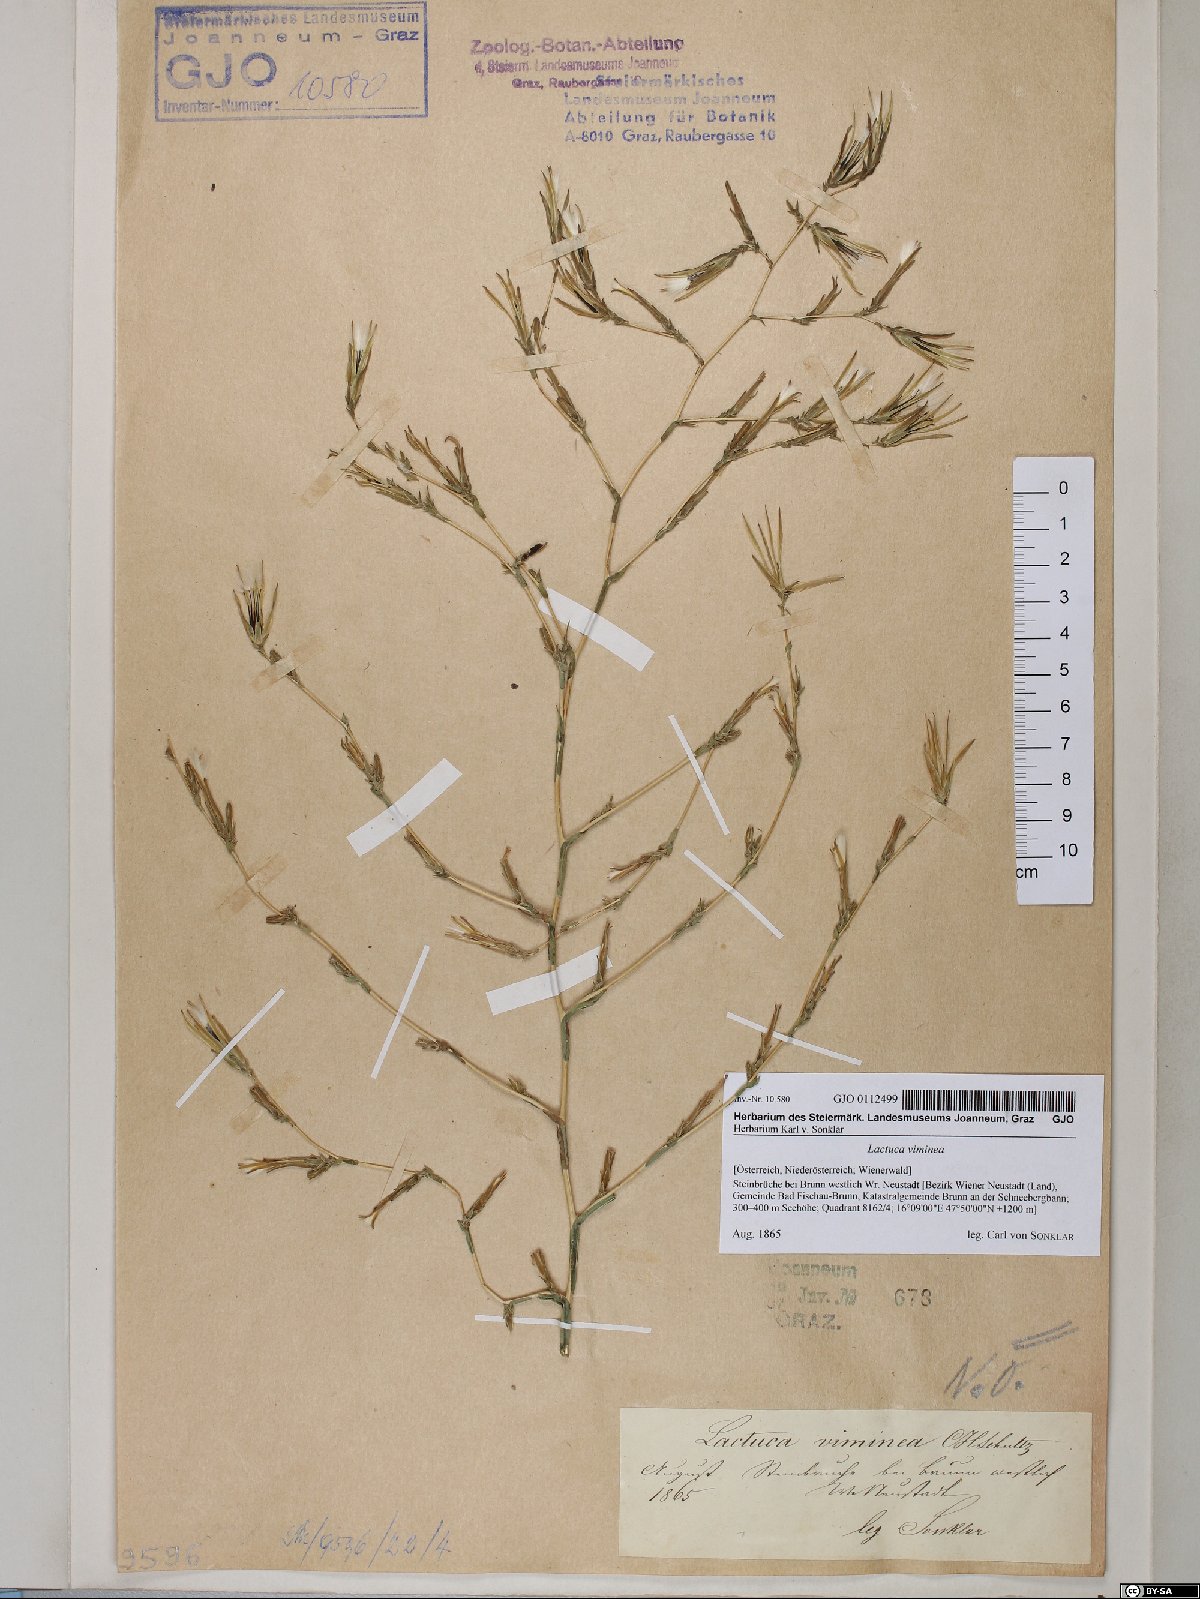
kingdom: Plantae
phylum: Tracheophyta
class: Magnoliopsida
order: Asterales
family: Asteraceae
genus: Lactuca
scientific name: Lactuca viminea
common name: Pliant lettuce
